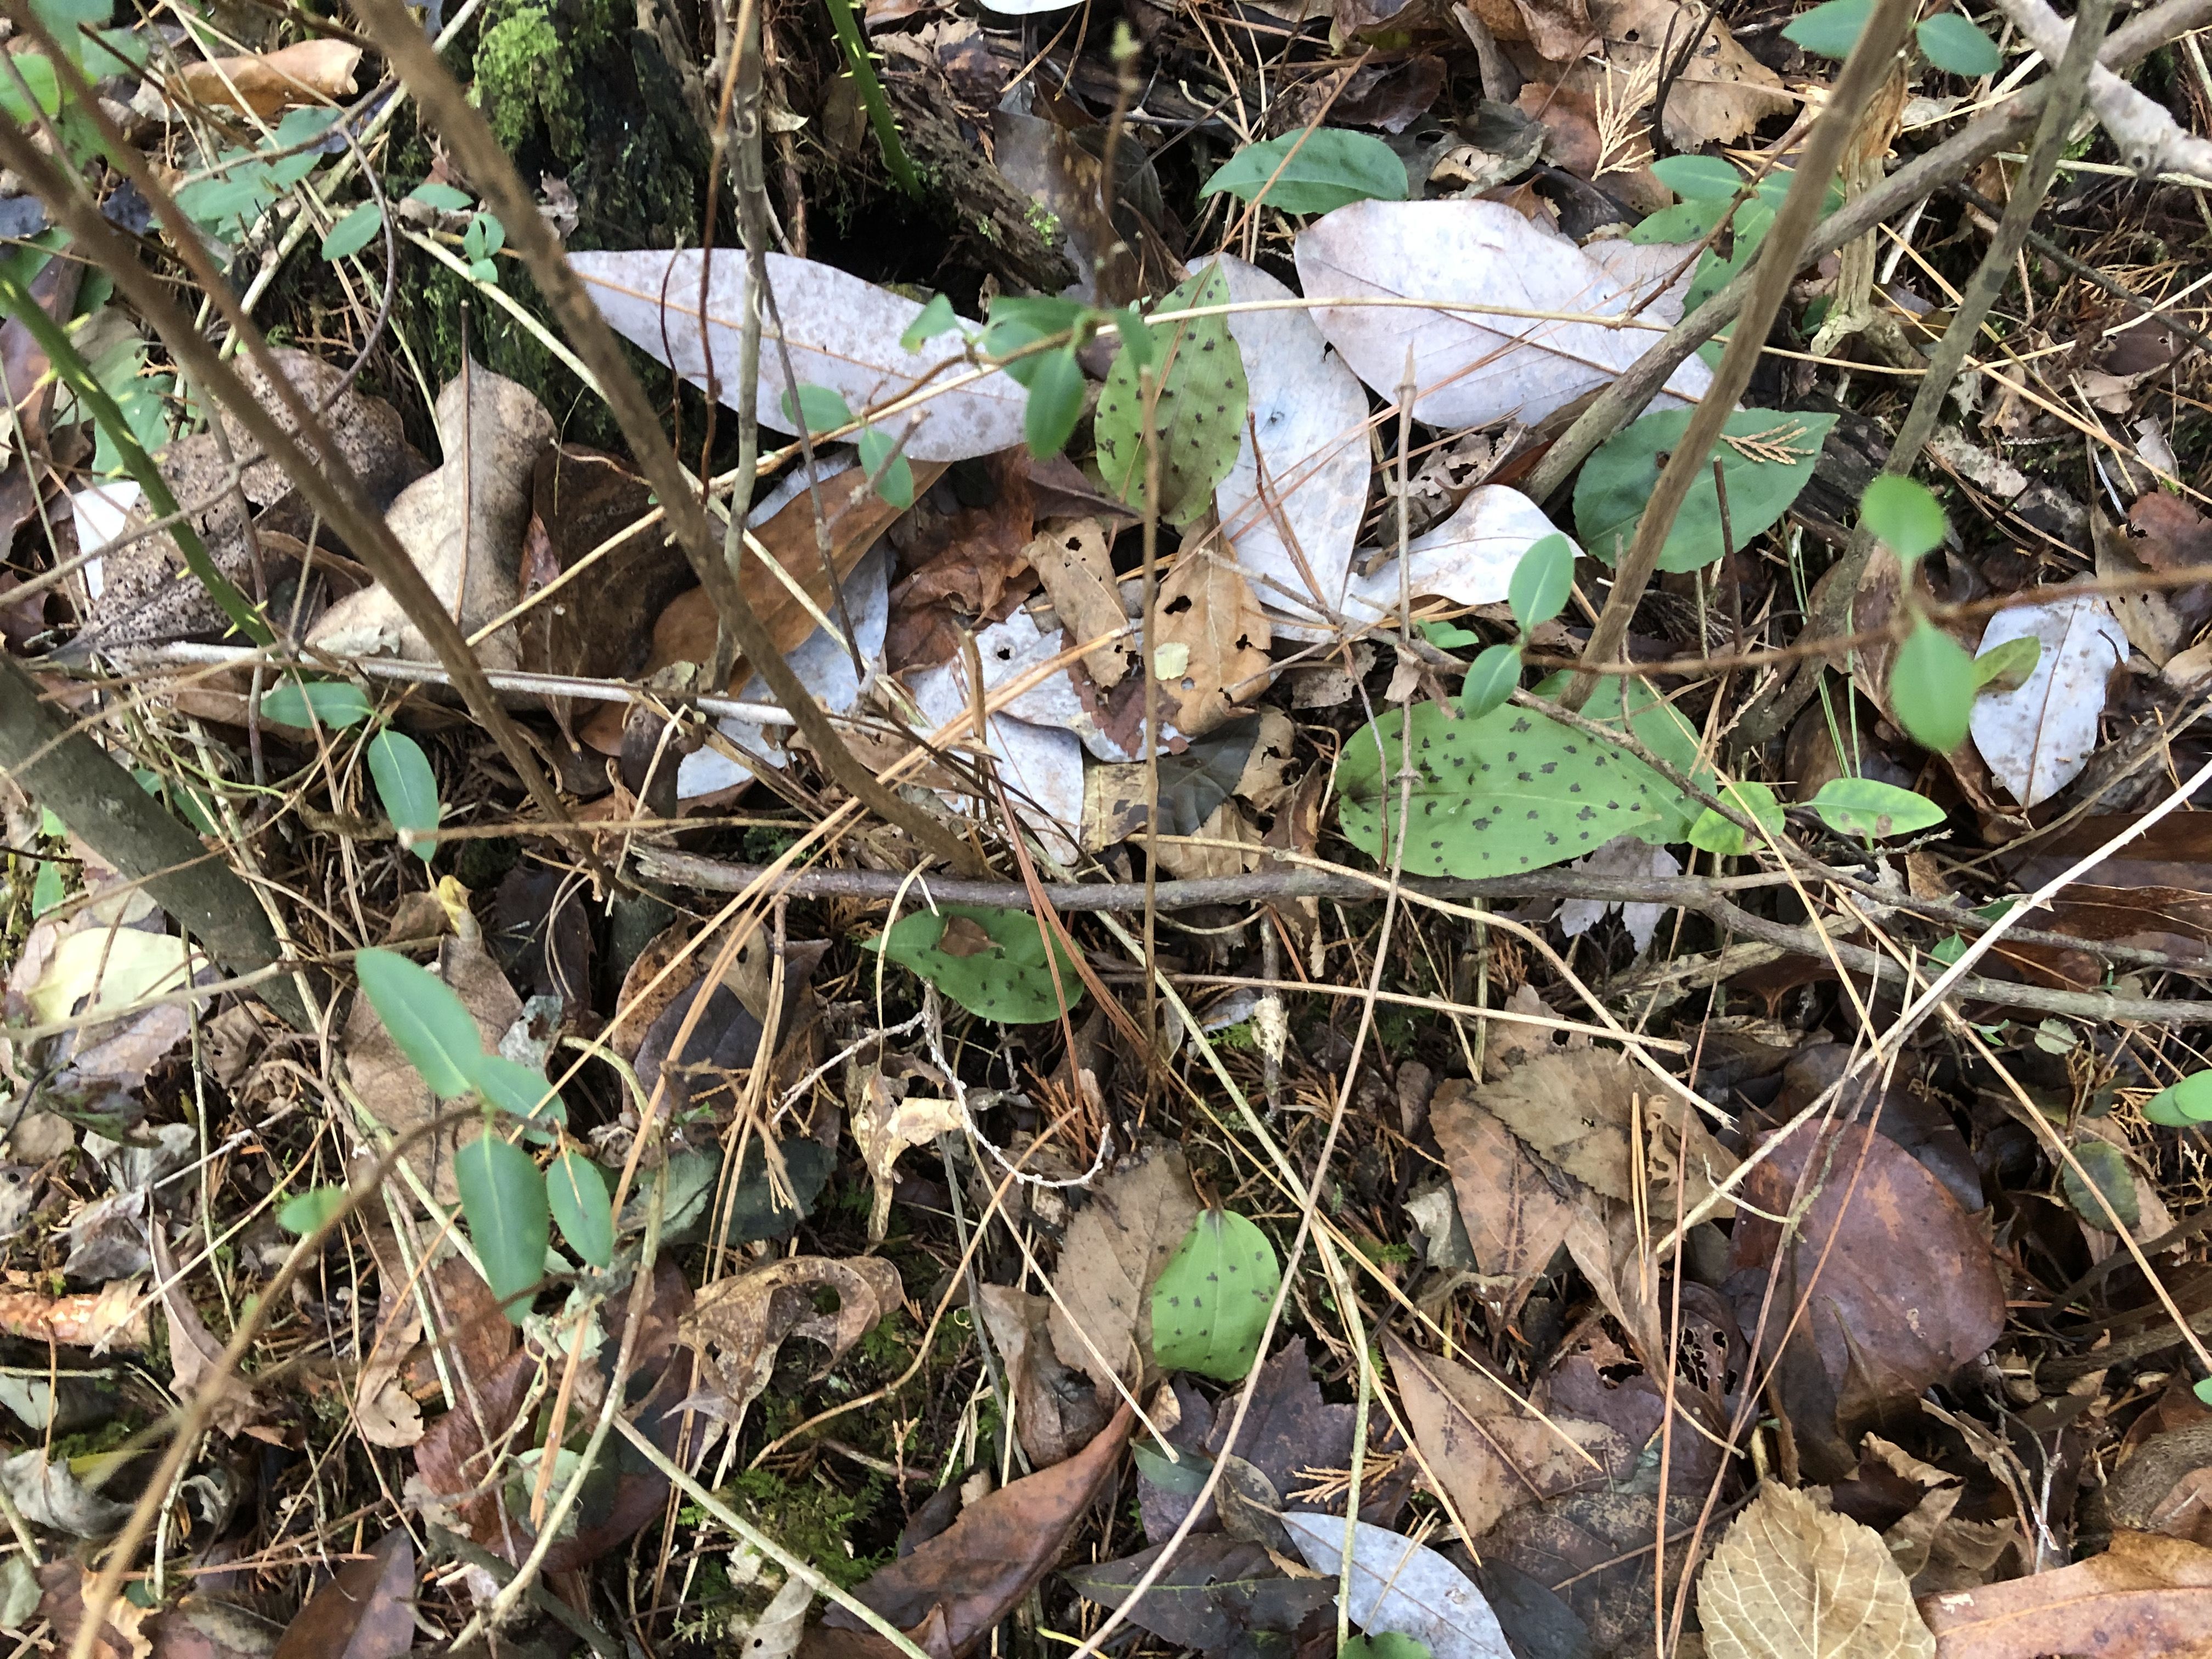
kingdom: Plantae
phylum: Tracheophyta
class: Liliopsida
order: Asparagales
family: Orchidaceae
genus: Tipularia
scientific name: Tipularia discolor
